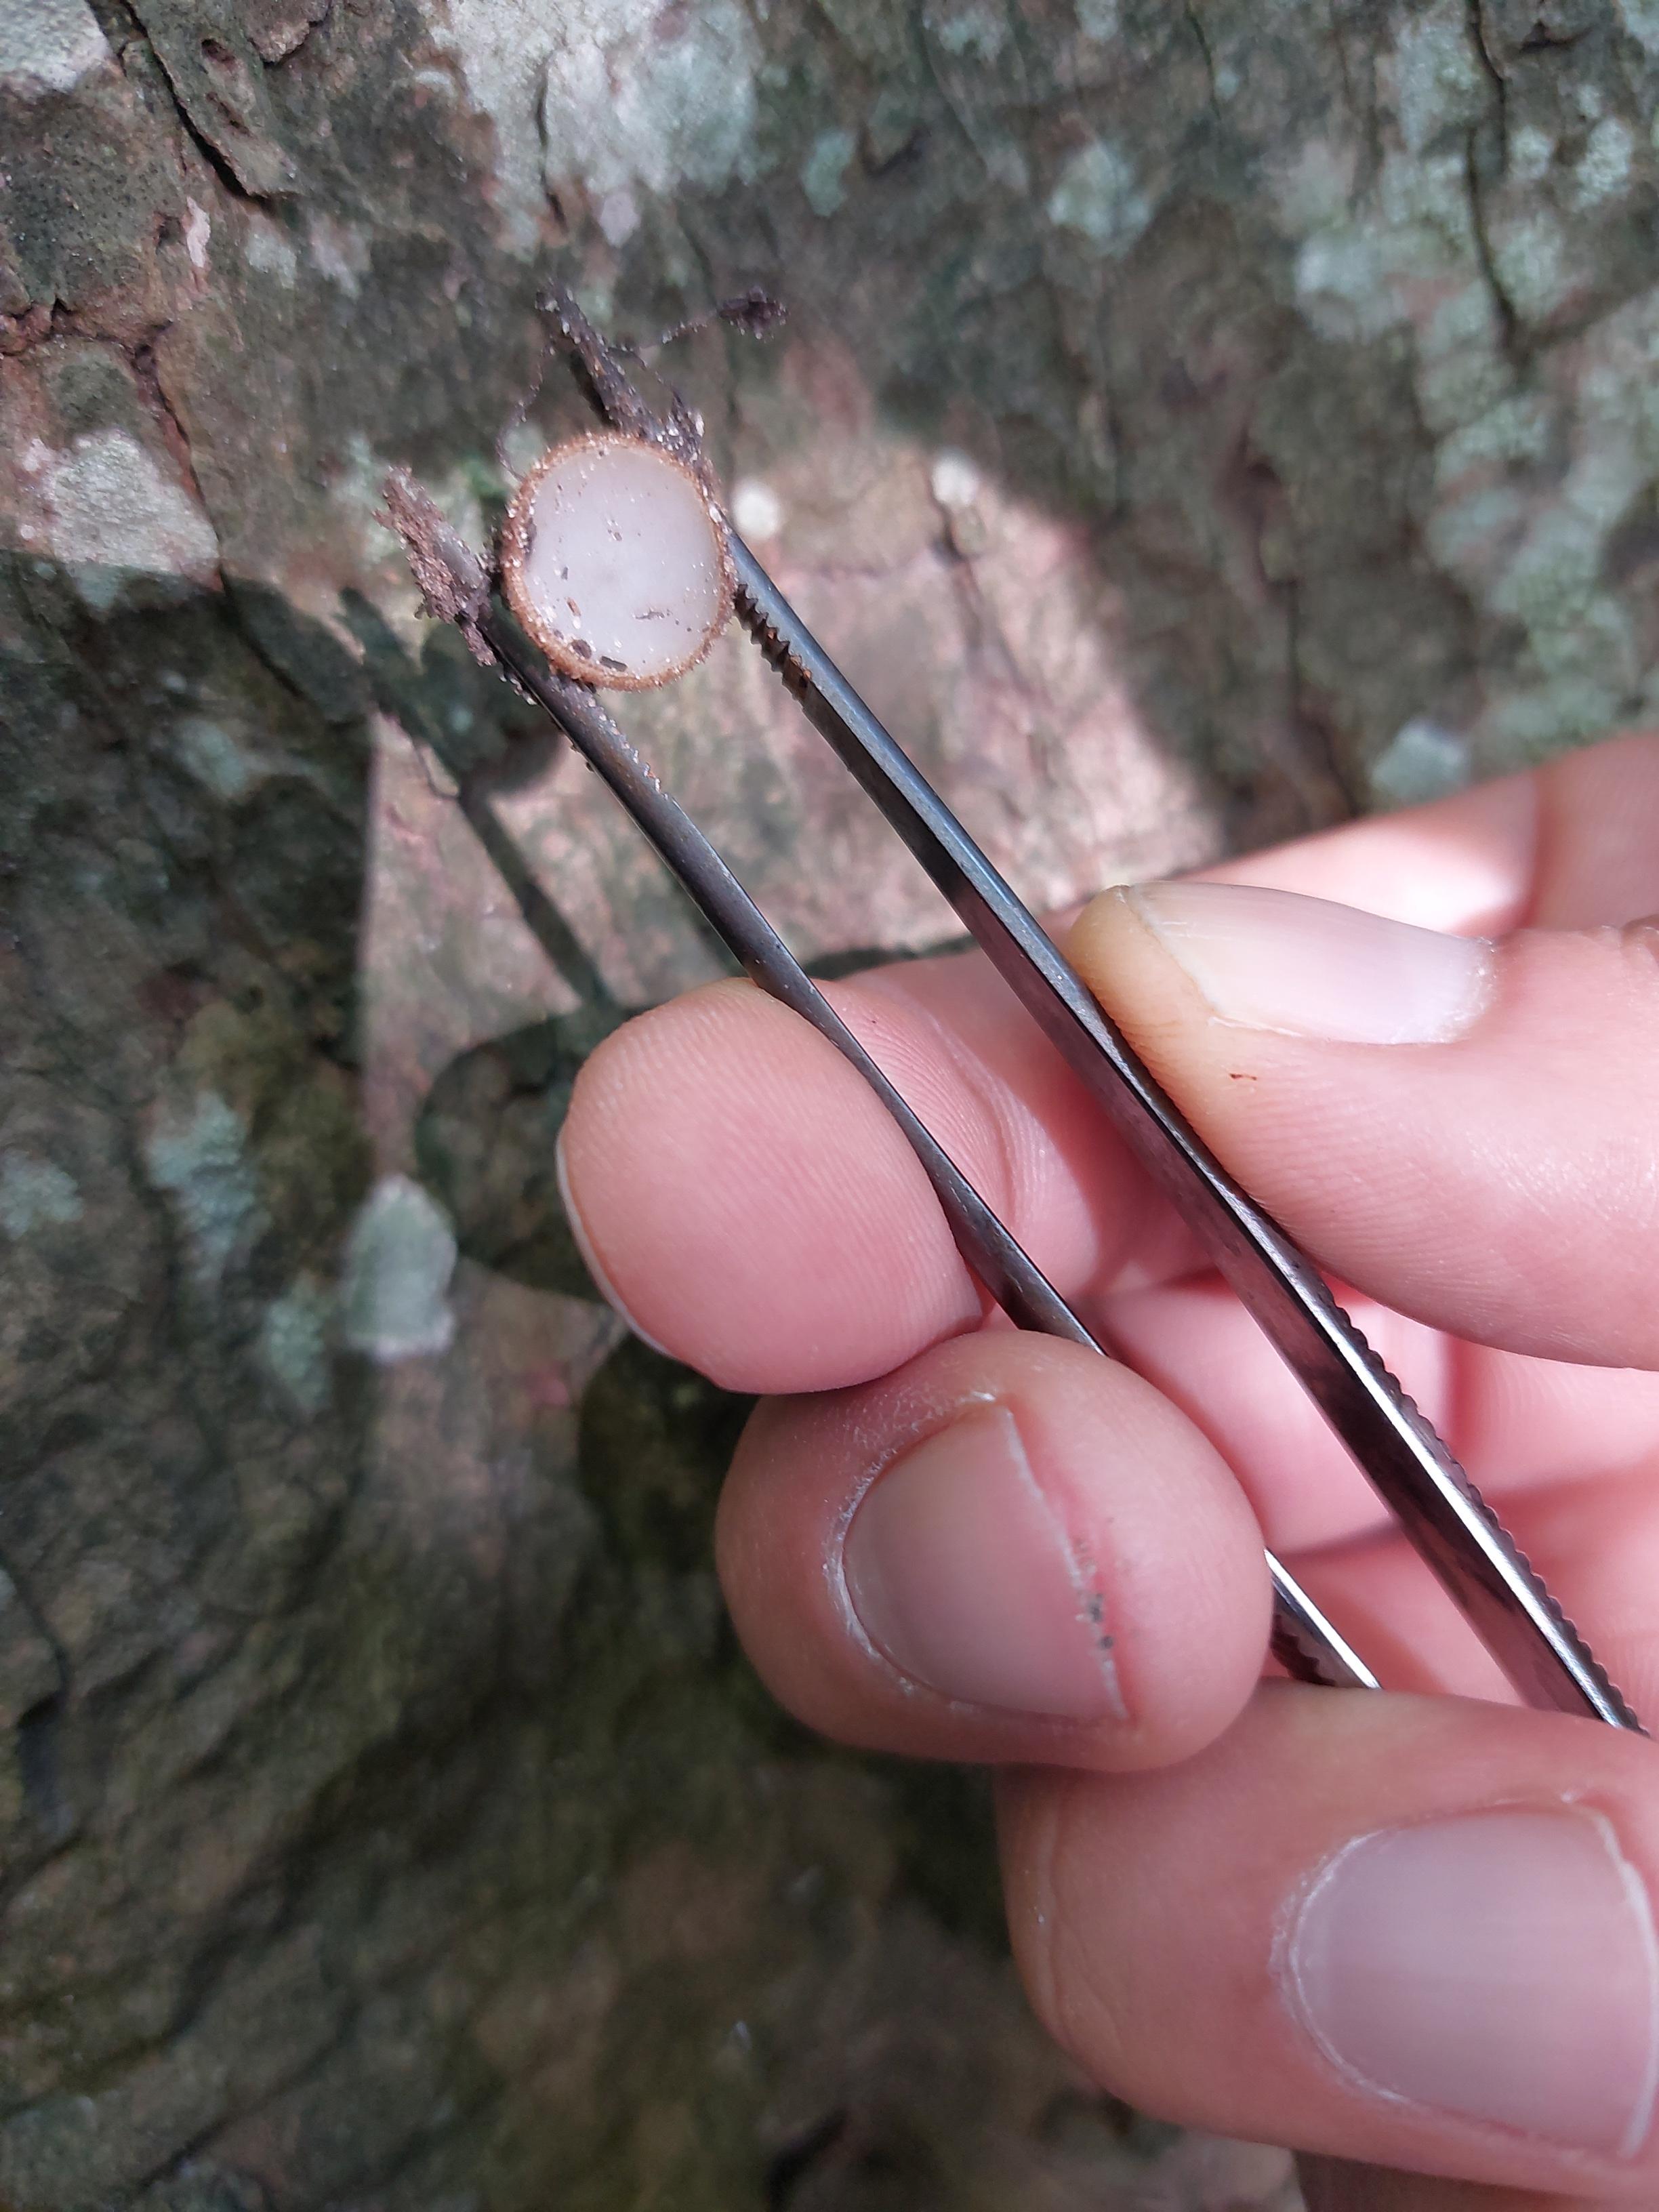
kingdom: Fungi
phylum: Ascomycota
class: Pezizomycetes
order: Pezizales
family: Pyronemataceae
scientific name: Pyronemataceae
